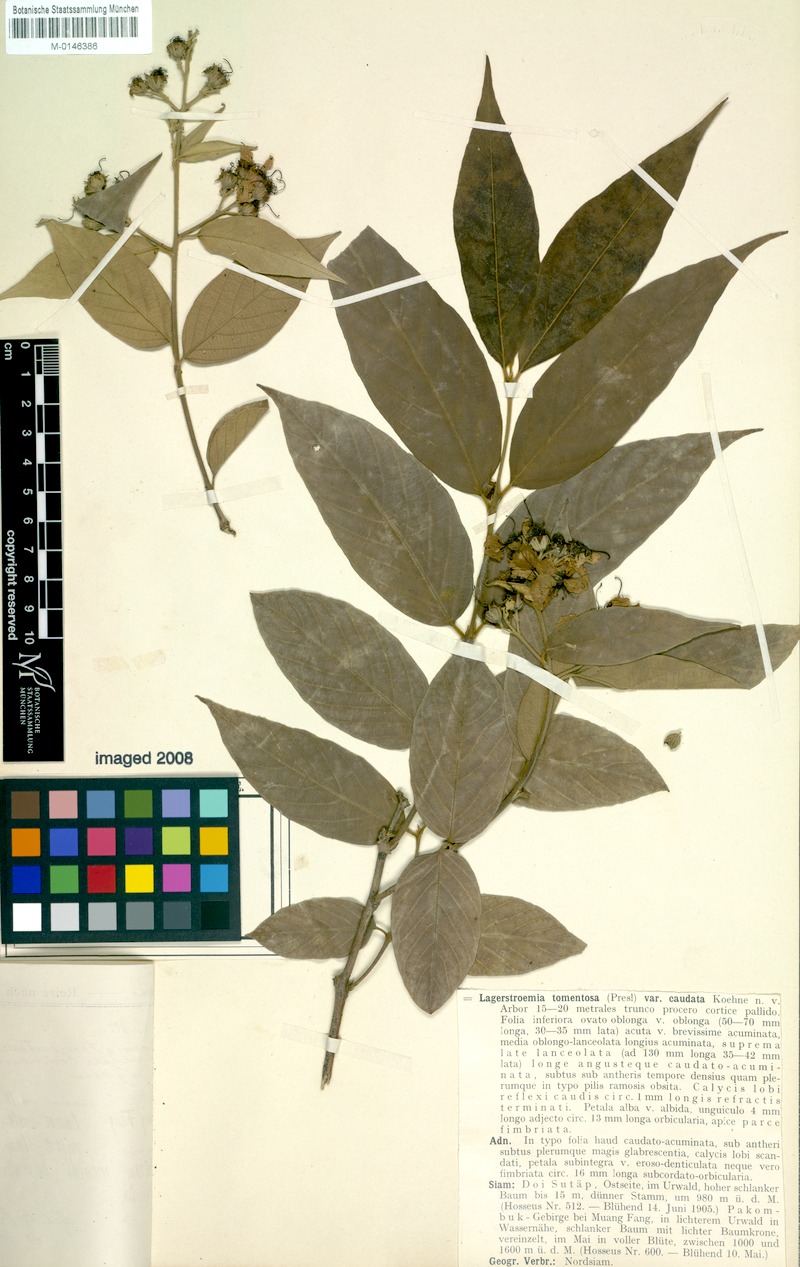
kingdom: Plantae
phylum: Tracheophyta
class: Magnoliopsida
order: Myrtales
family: Lythraceae
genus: Lagerstroemia
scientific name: Lagerstroemia tomentosa
